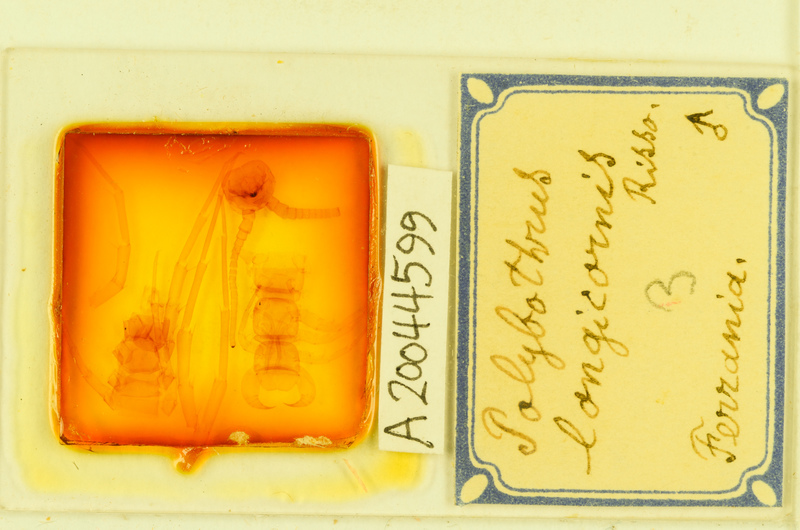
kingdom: Animalia
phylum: Arthropoda
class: Chilopoda
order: Lithobiomorpha
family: Lithobiidae
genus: Polybothrus
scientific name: Polybothrus
